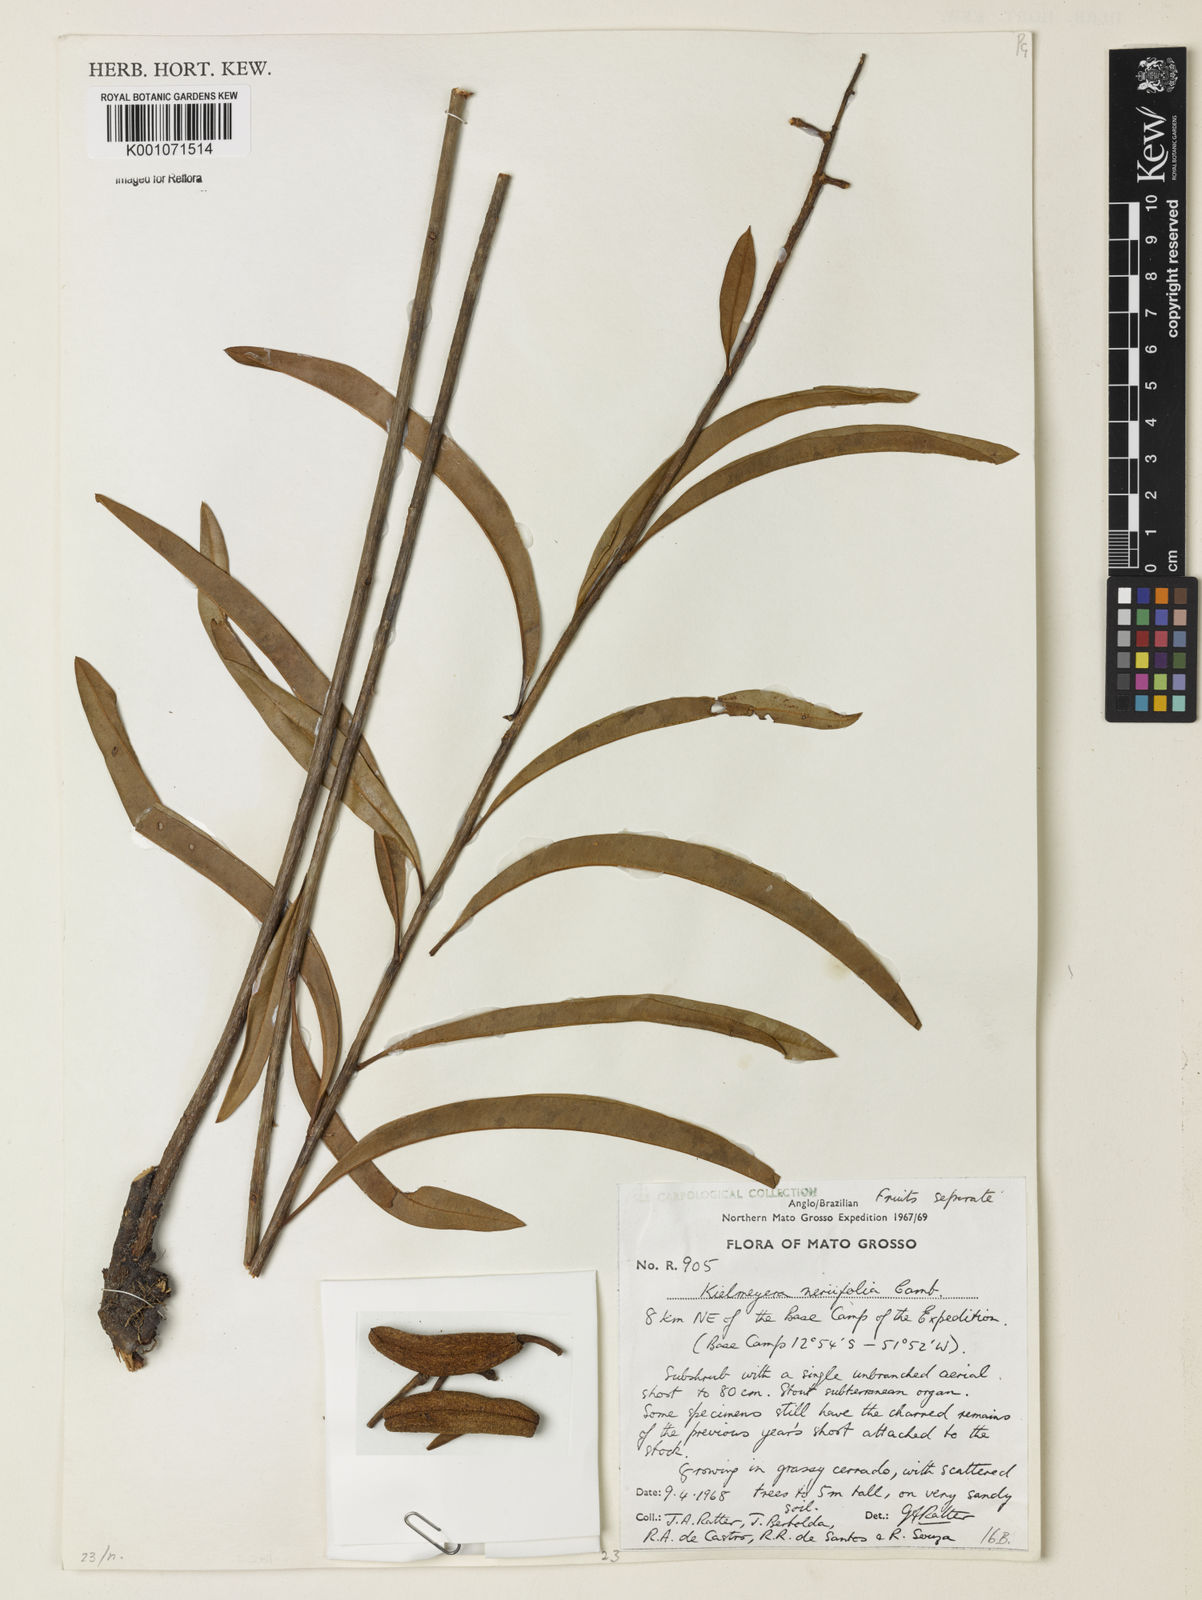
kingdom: Plantae
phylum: Tracheophyta
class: Magnoliopsida
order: Malpighiales
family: Calophyllaceae
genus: Kielmeyera
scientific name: Kielmeyera abdita
